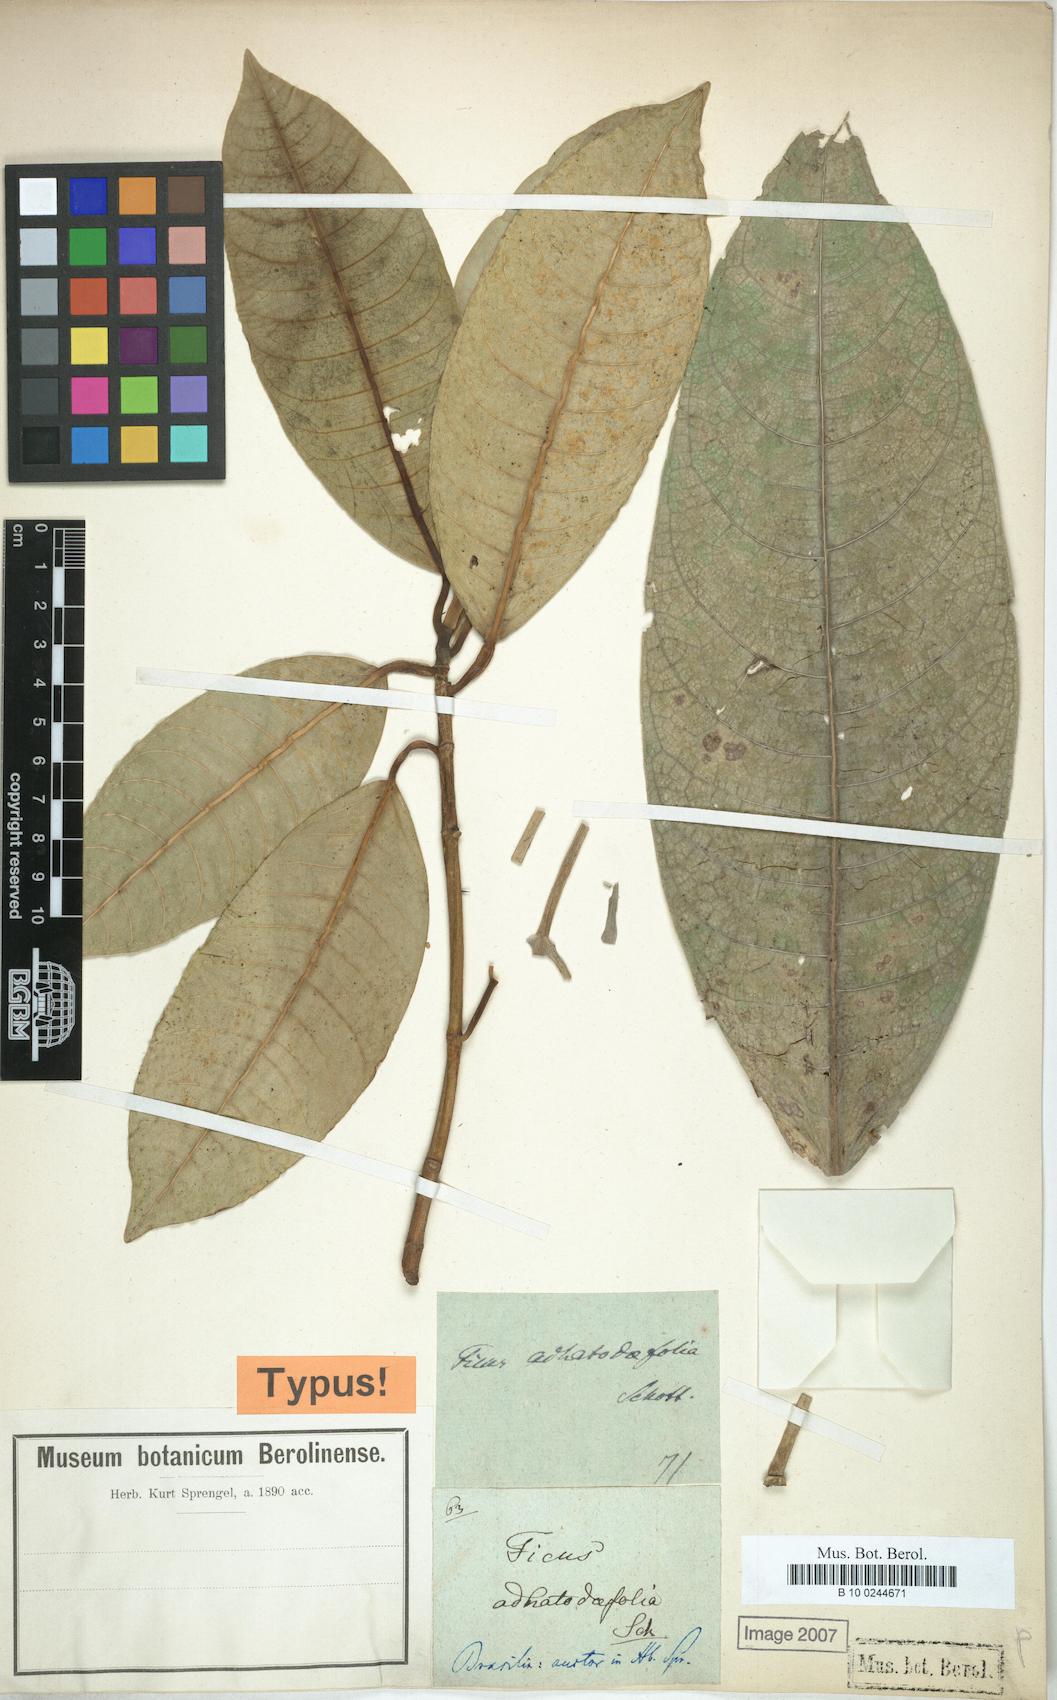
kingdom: Plantae
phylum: Tracheophyta
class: Magnoliopsida
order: Rosales
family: Moraceae
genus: Ficus
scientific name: Ficus adhatodifolia
